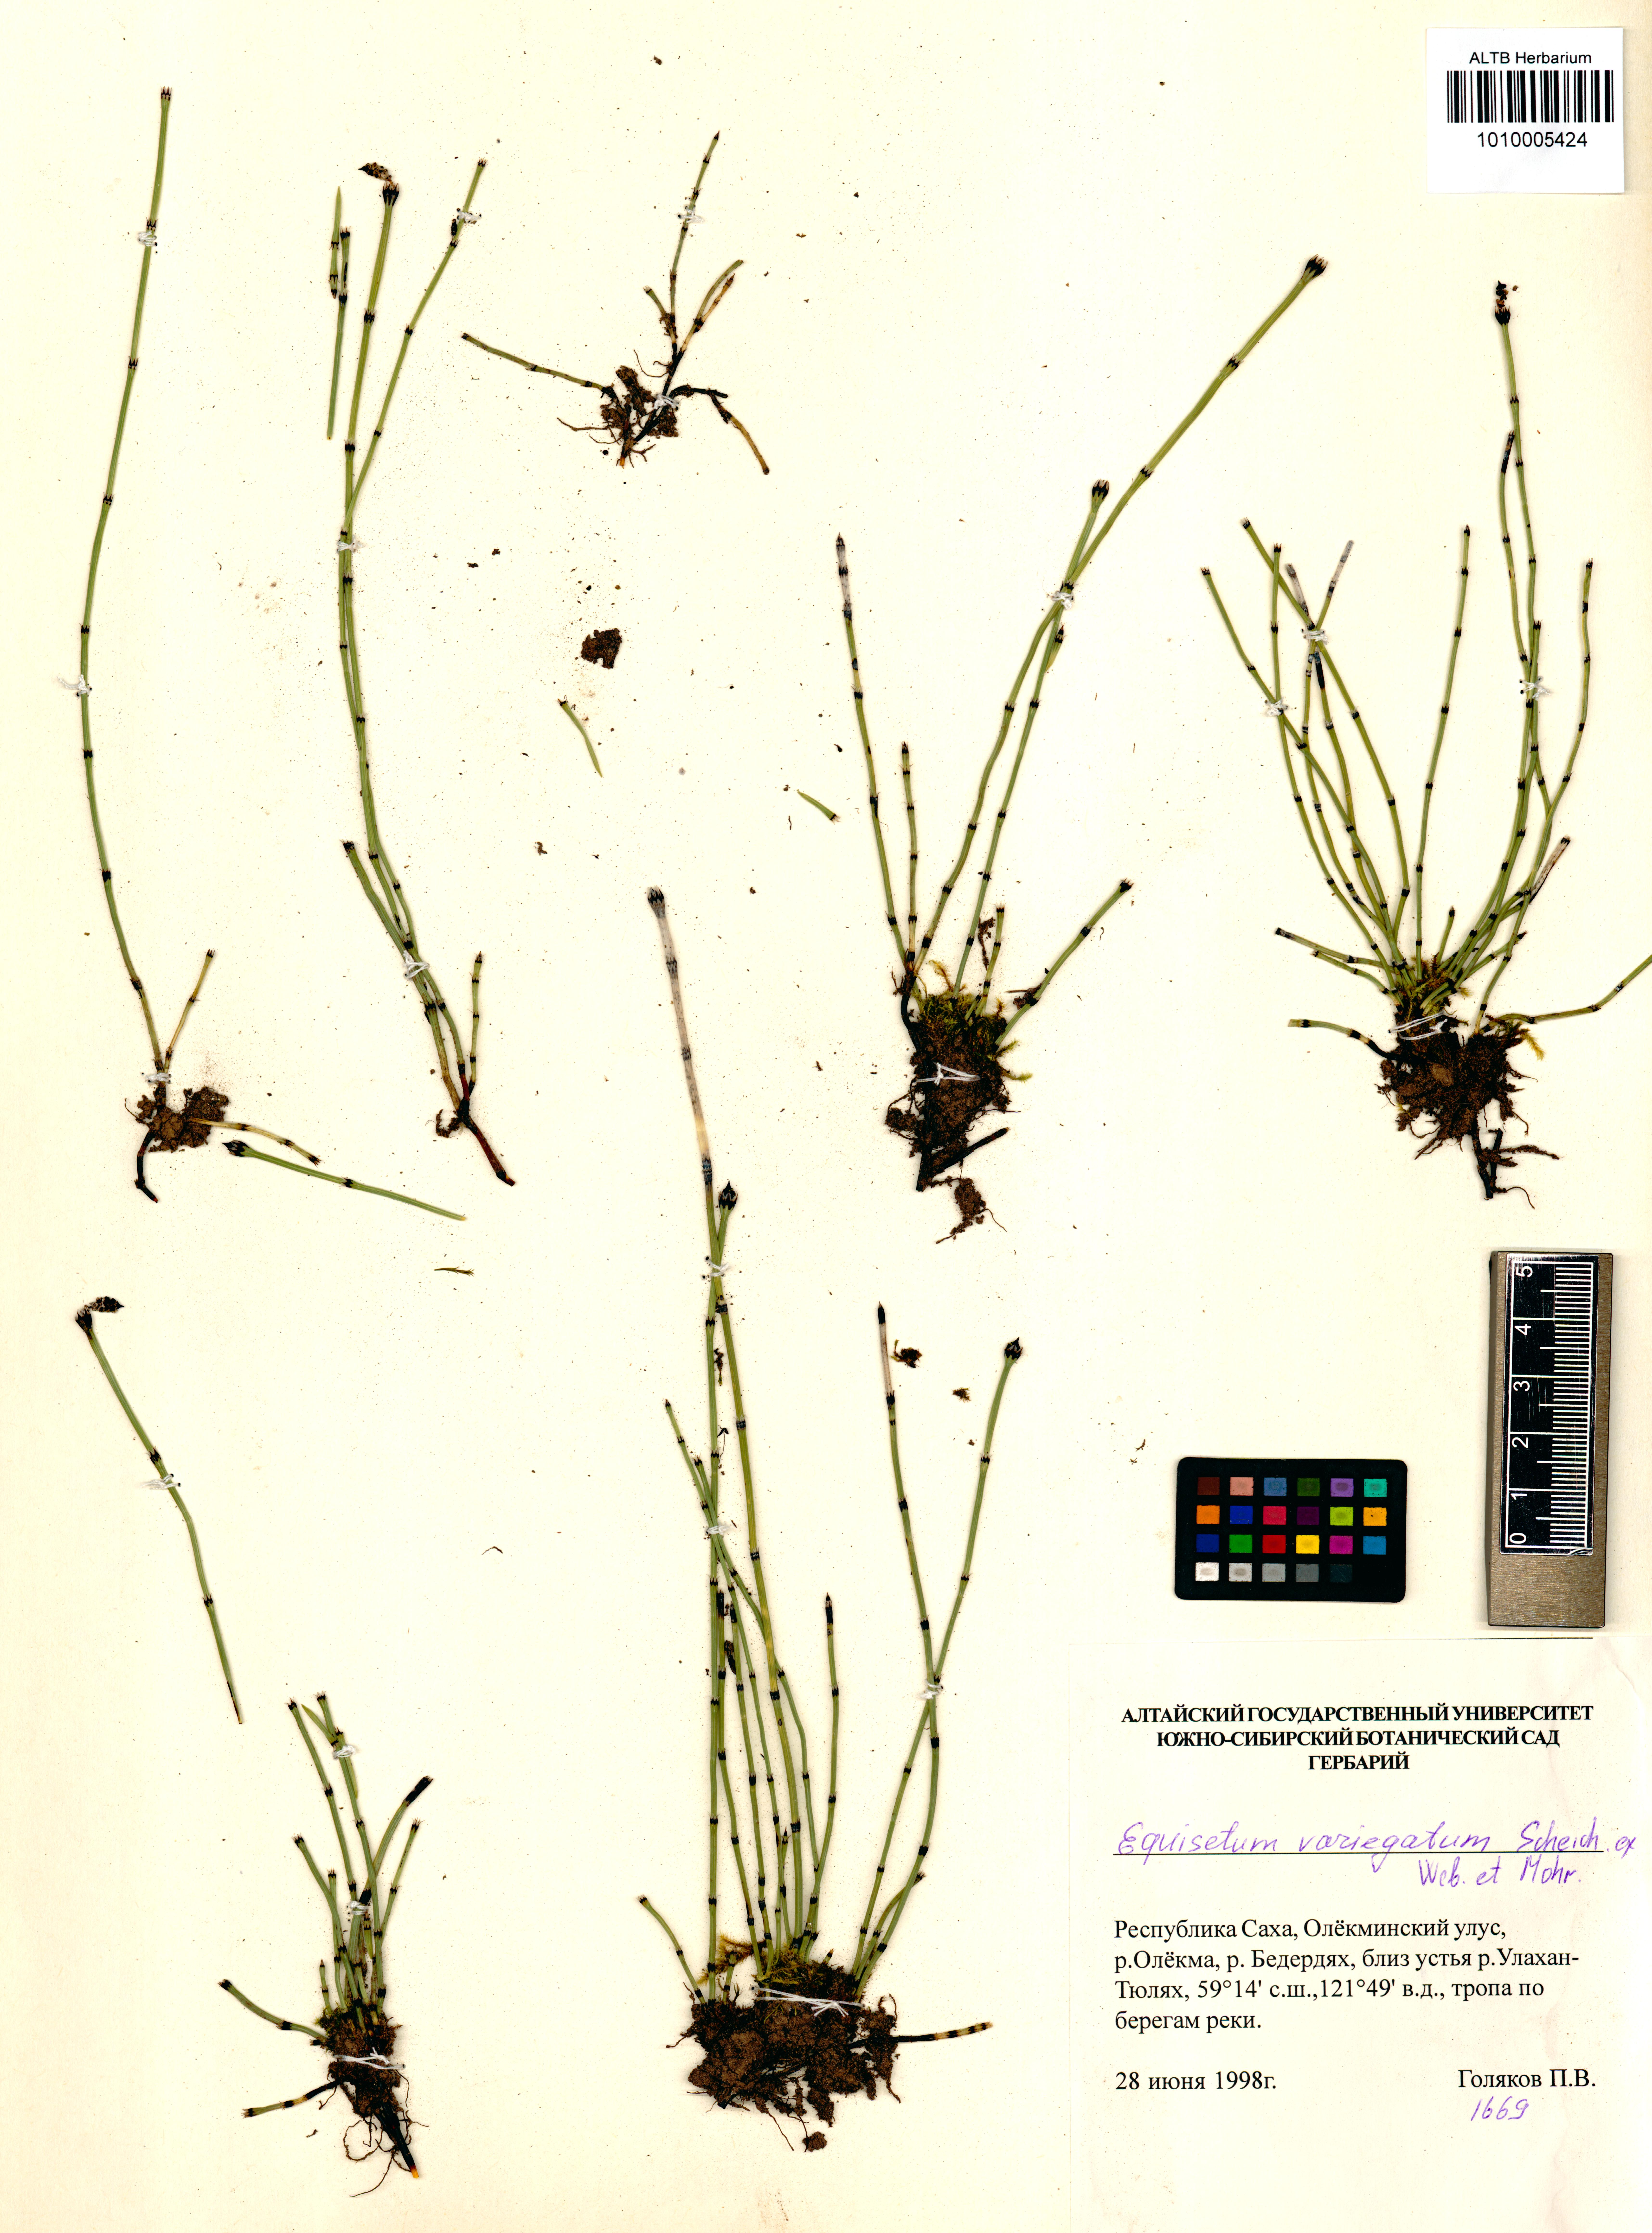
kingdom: Plantae
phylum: Tracheophyta
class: Polypodiopsida
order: Equisetales
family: Equisetaceae
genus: Equisetum
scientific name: Equisetum variegatum
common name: Variegated horsetail
